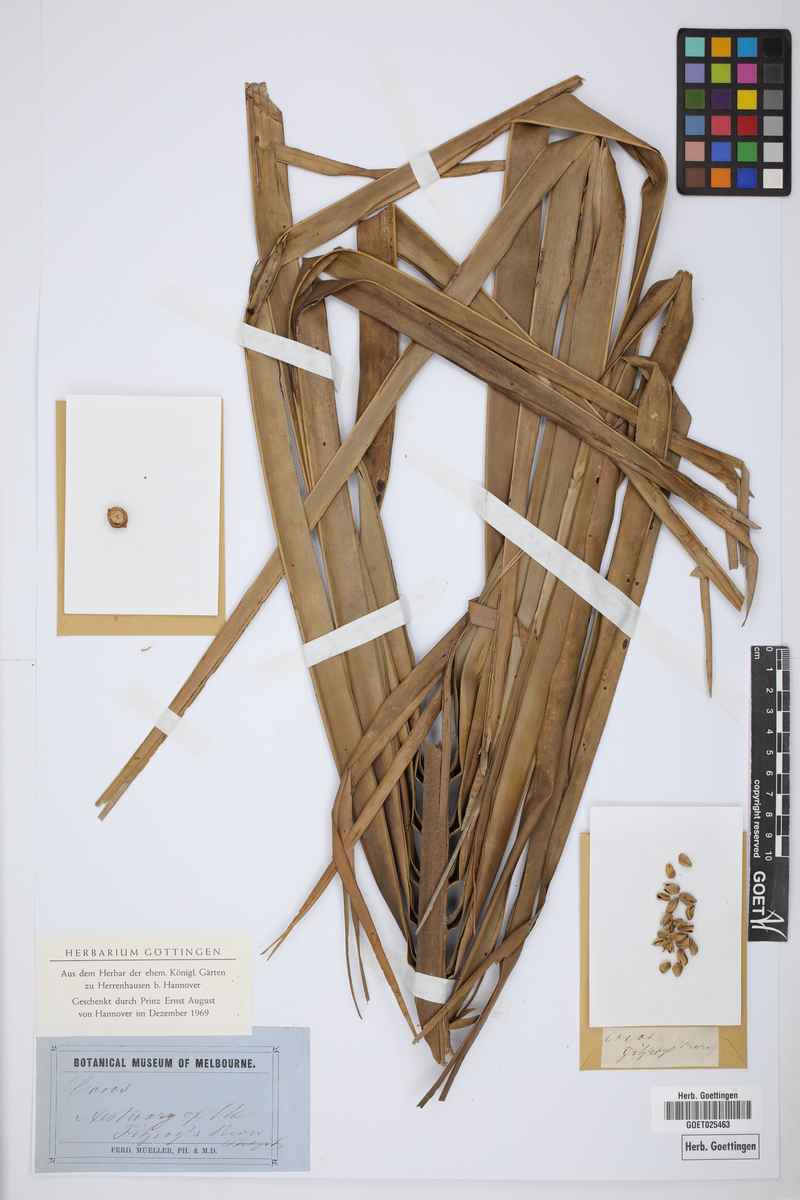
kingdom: Plantae
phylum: Tracheophyta
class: Liliopsida
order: Arecales
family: Arecaceae
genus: Cocos
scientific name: Cocos
